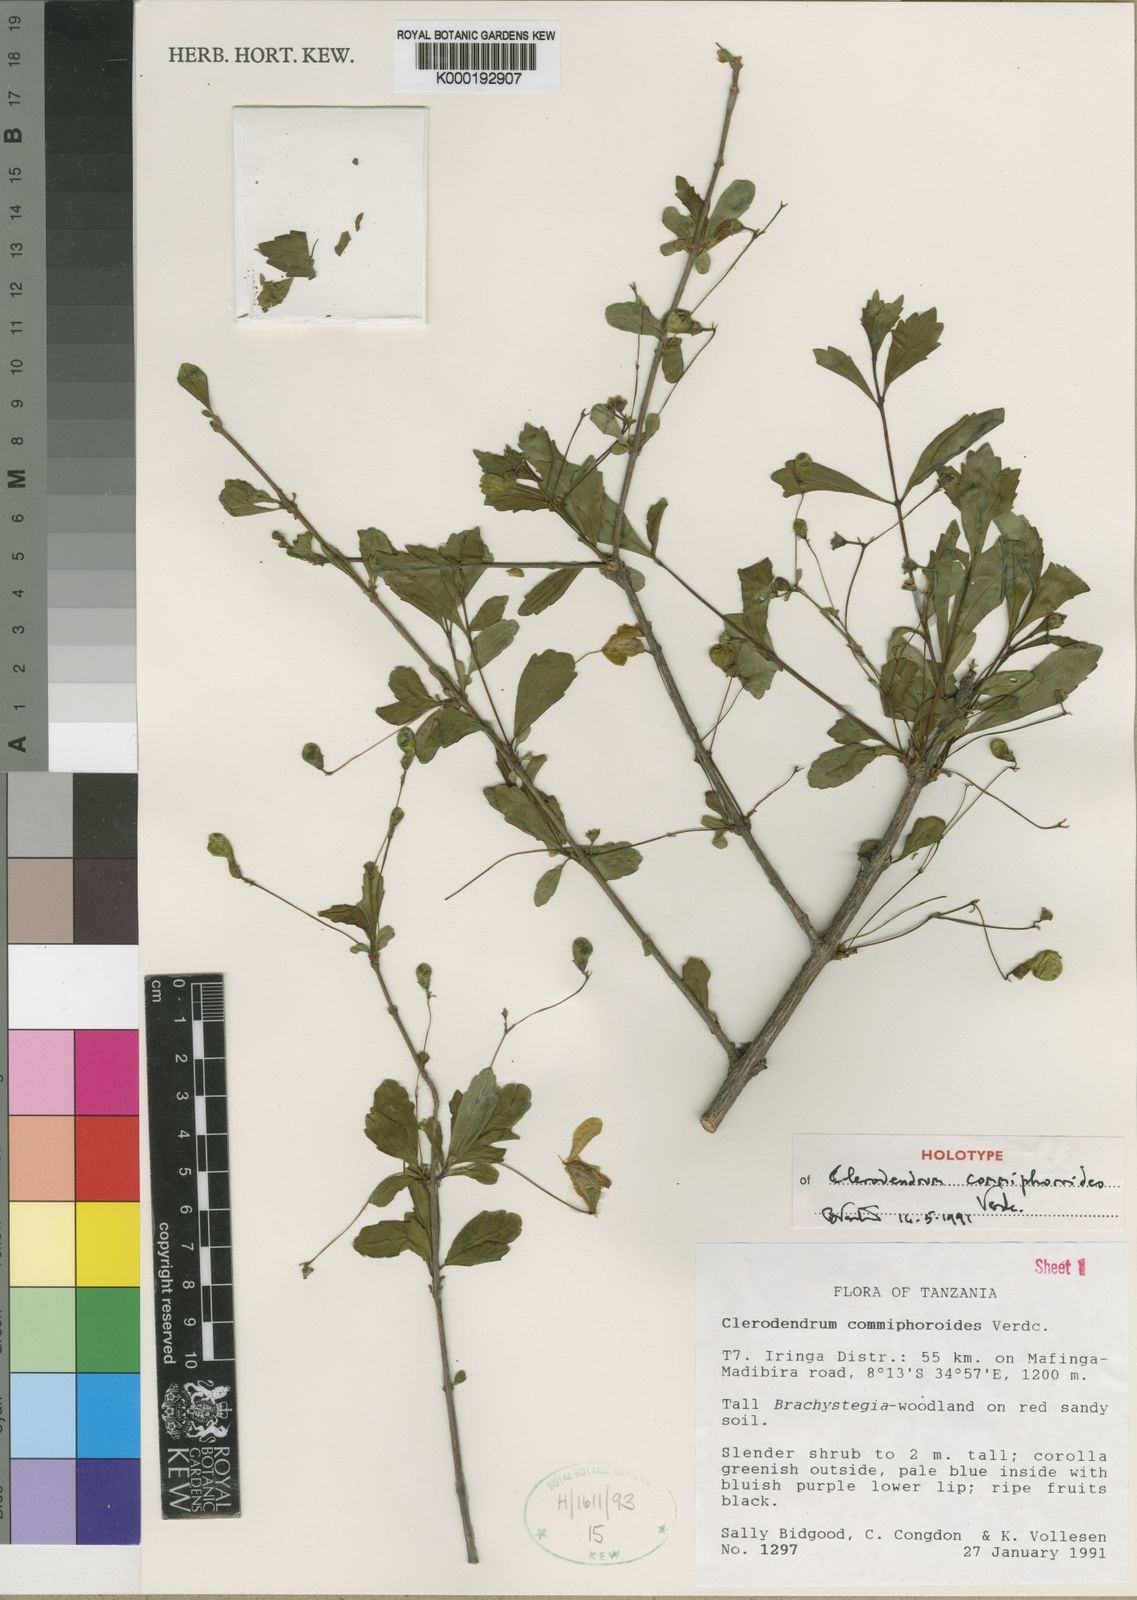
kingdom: Plantae
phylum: Tracheophyta
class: Magnoliopsida
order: Lamiales
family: Lamiaceae
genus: Rotheca
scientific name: Rotheca commiphoroides
